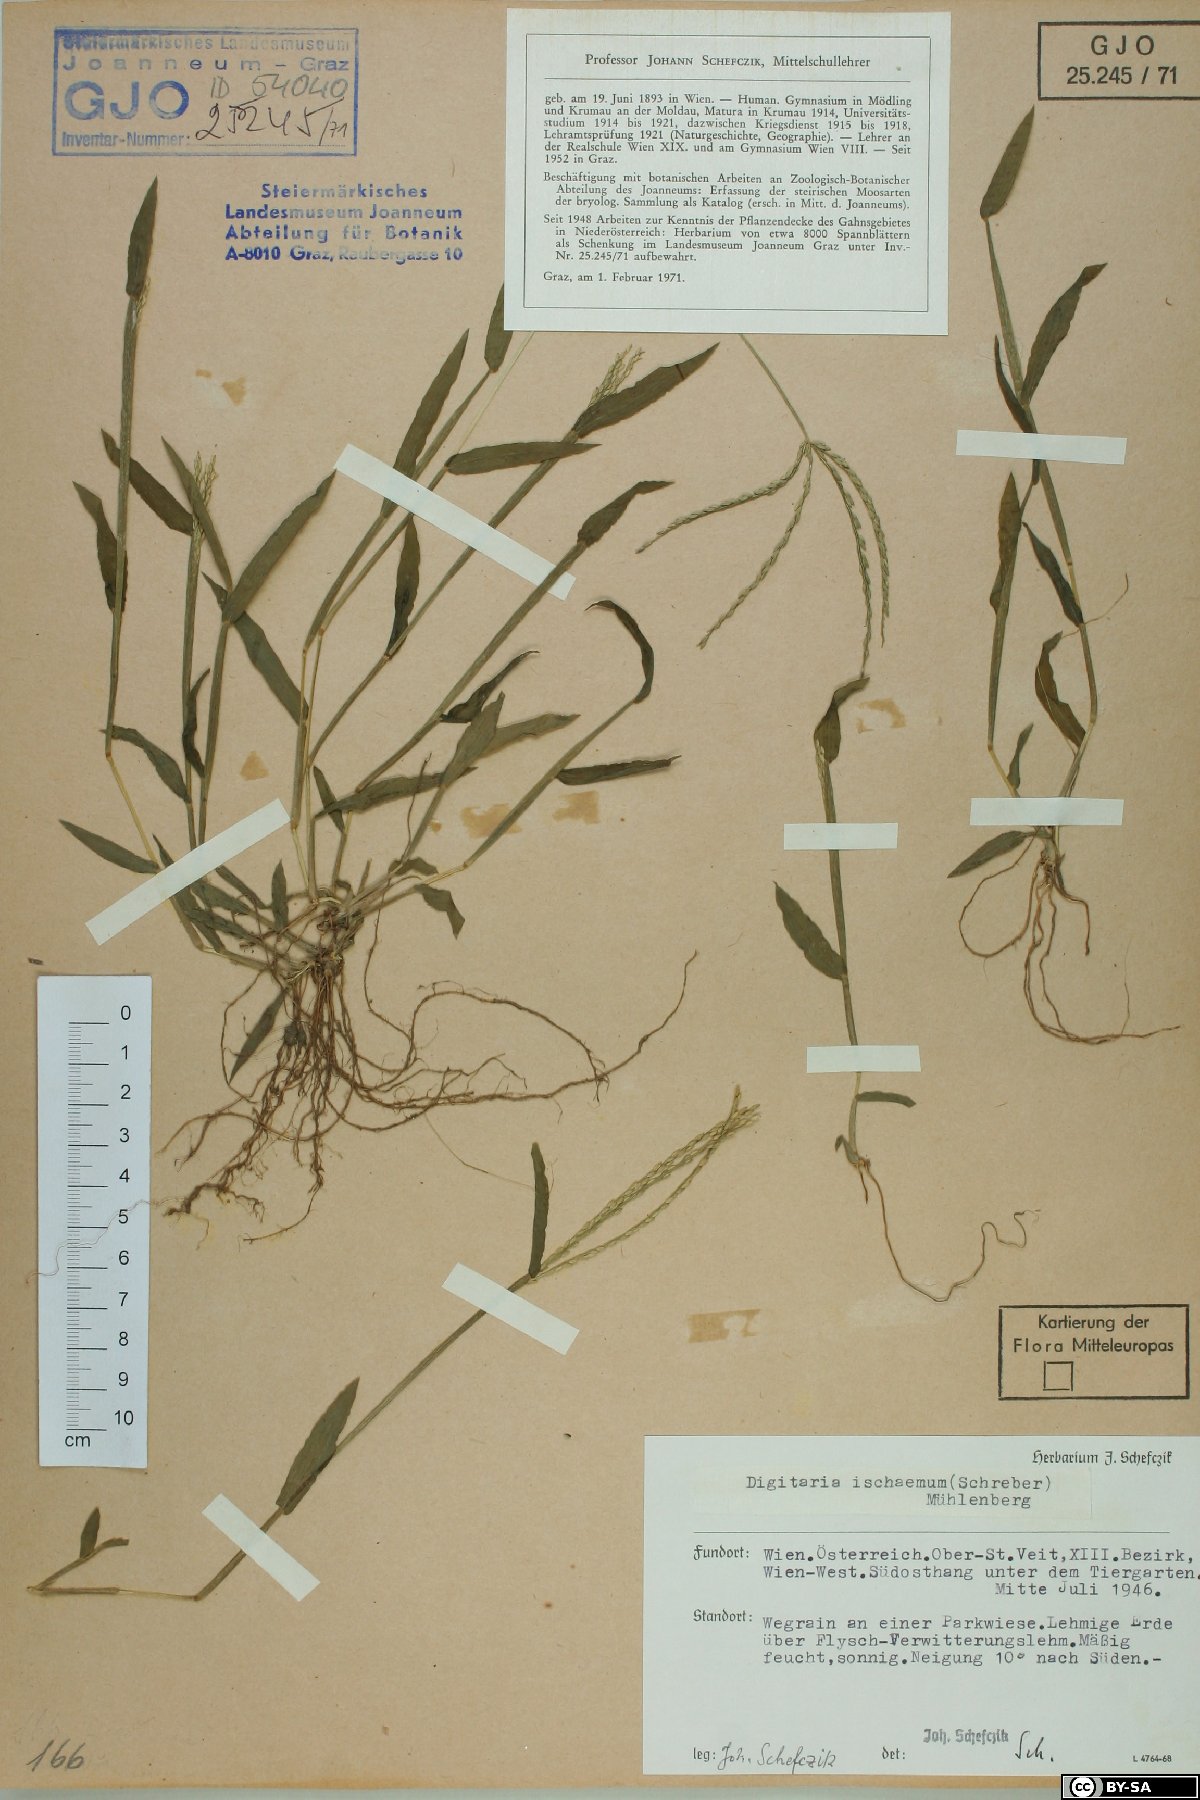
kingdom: Plantae
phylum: Tracheophyta
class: Liliopsida
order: Poales
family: Poaceae
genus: Digitaria
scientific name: Digitaria ischaemum
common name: Smooth crabgrass
